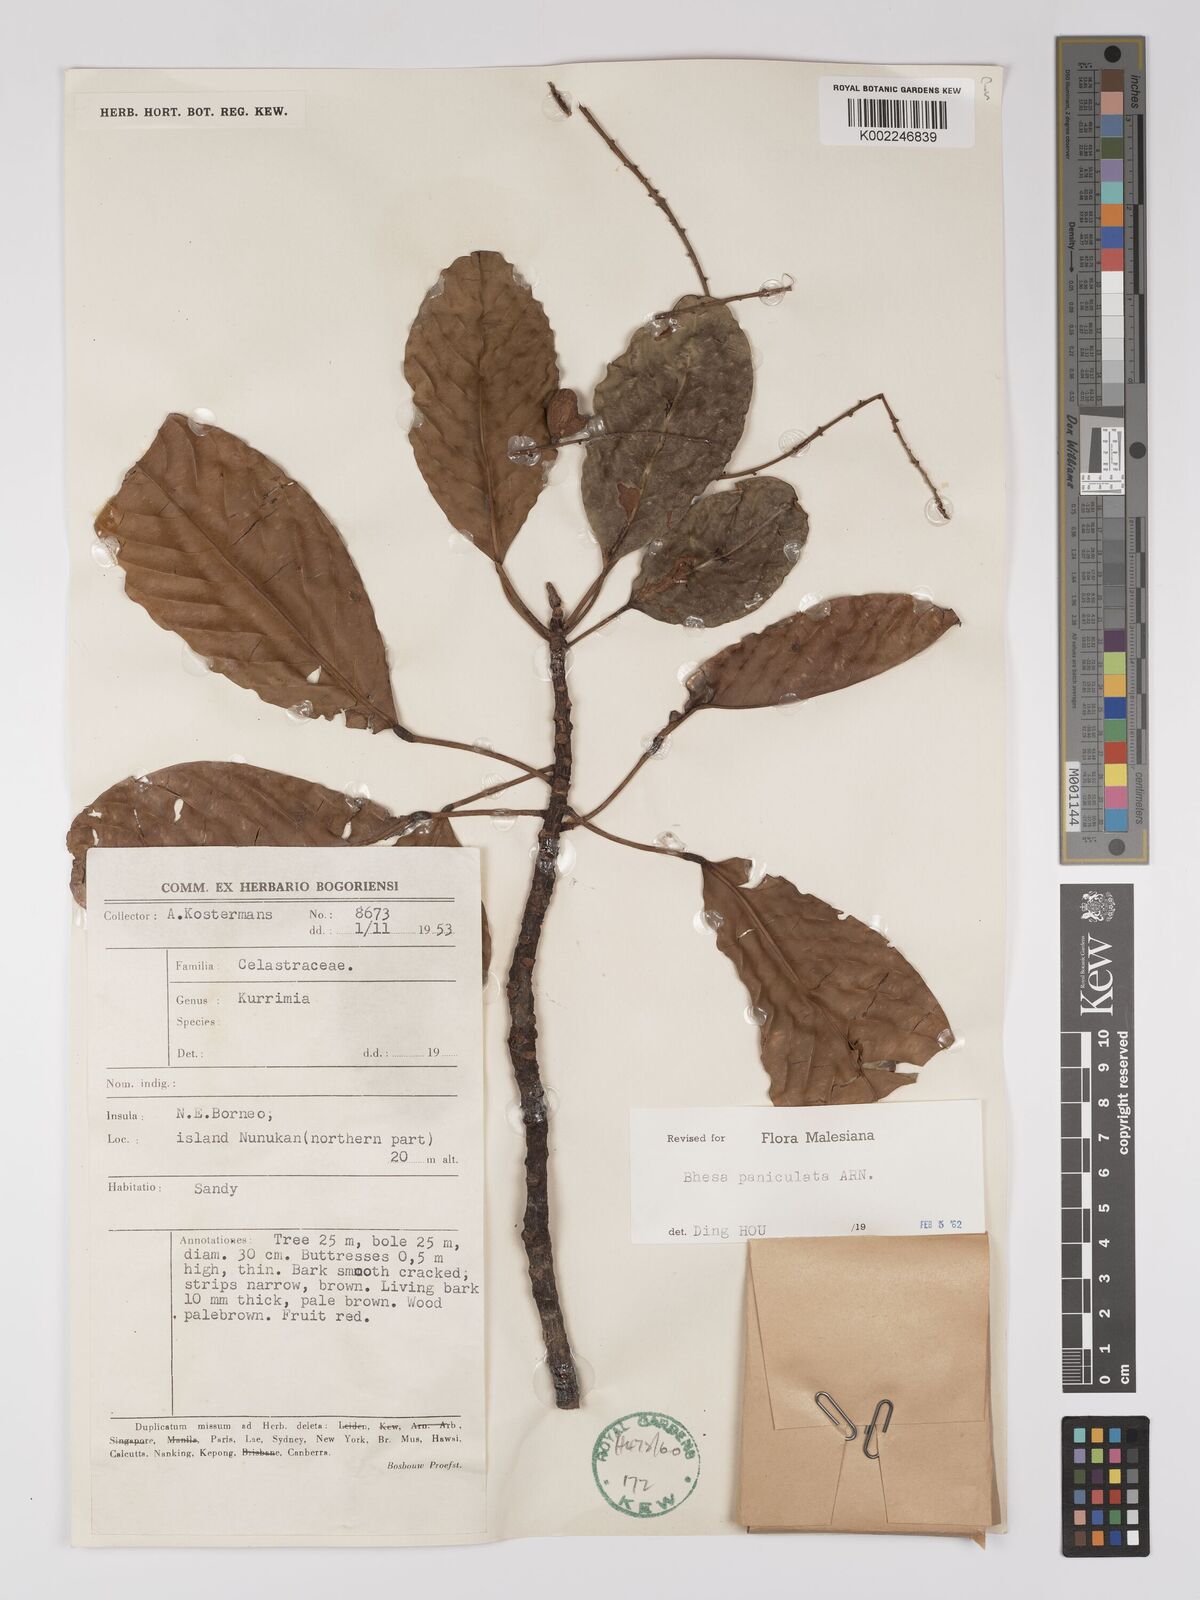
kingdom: Plantae
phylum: Tracheophyta
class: Magnoliopsida
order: Malpighiales
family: Centroplacaceae
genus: Bhesa
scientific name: Bhesa paniculata
